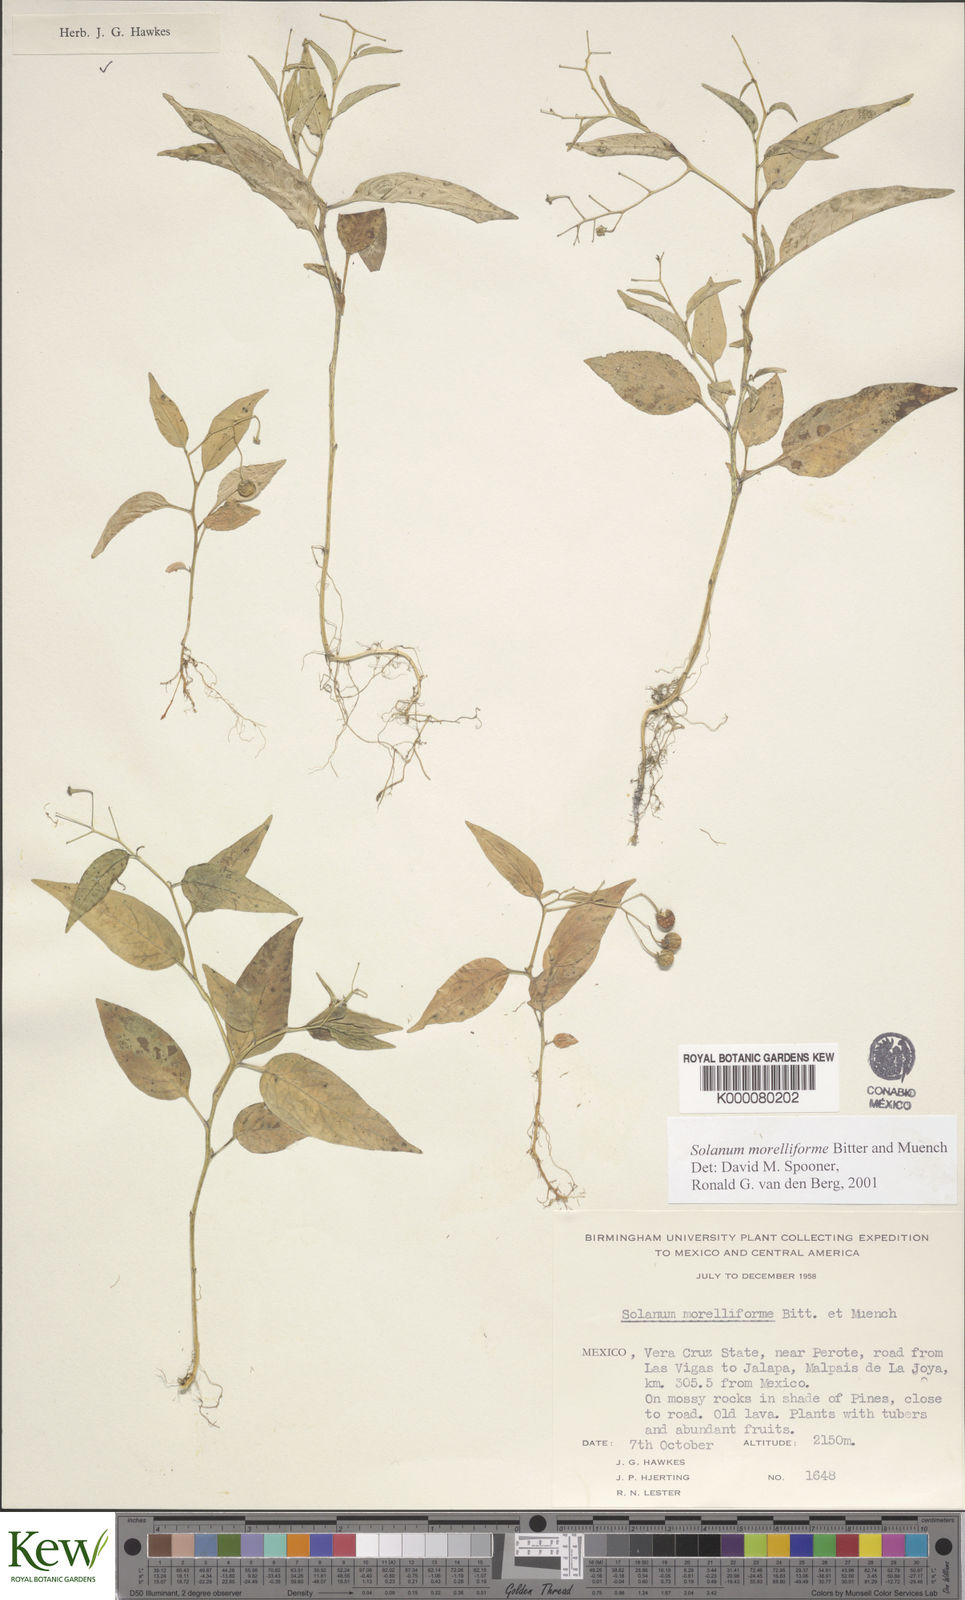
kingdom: Plantae
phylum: Tracheophyta
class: Magnoliopsida
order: Solanales
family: Solanaceae
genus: Solanum
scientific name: Solanum morelliforme
